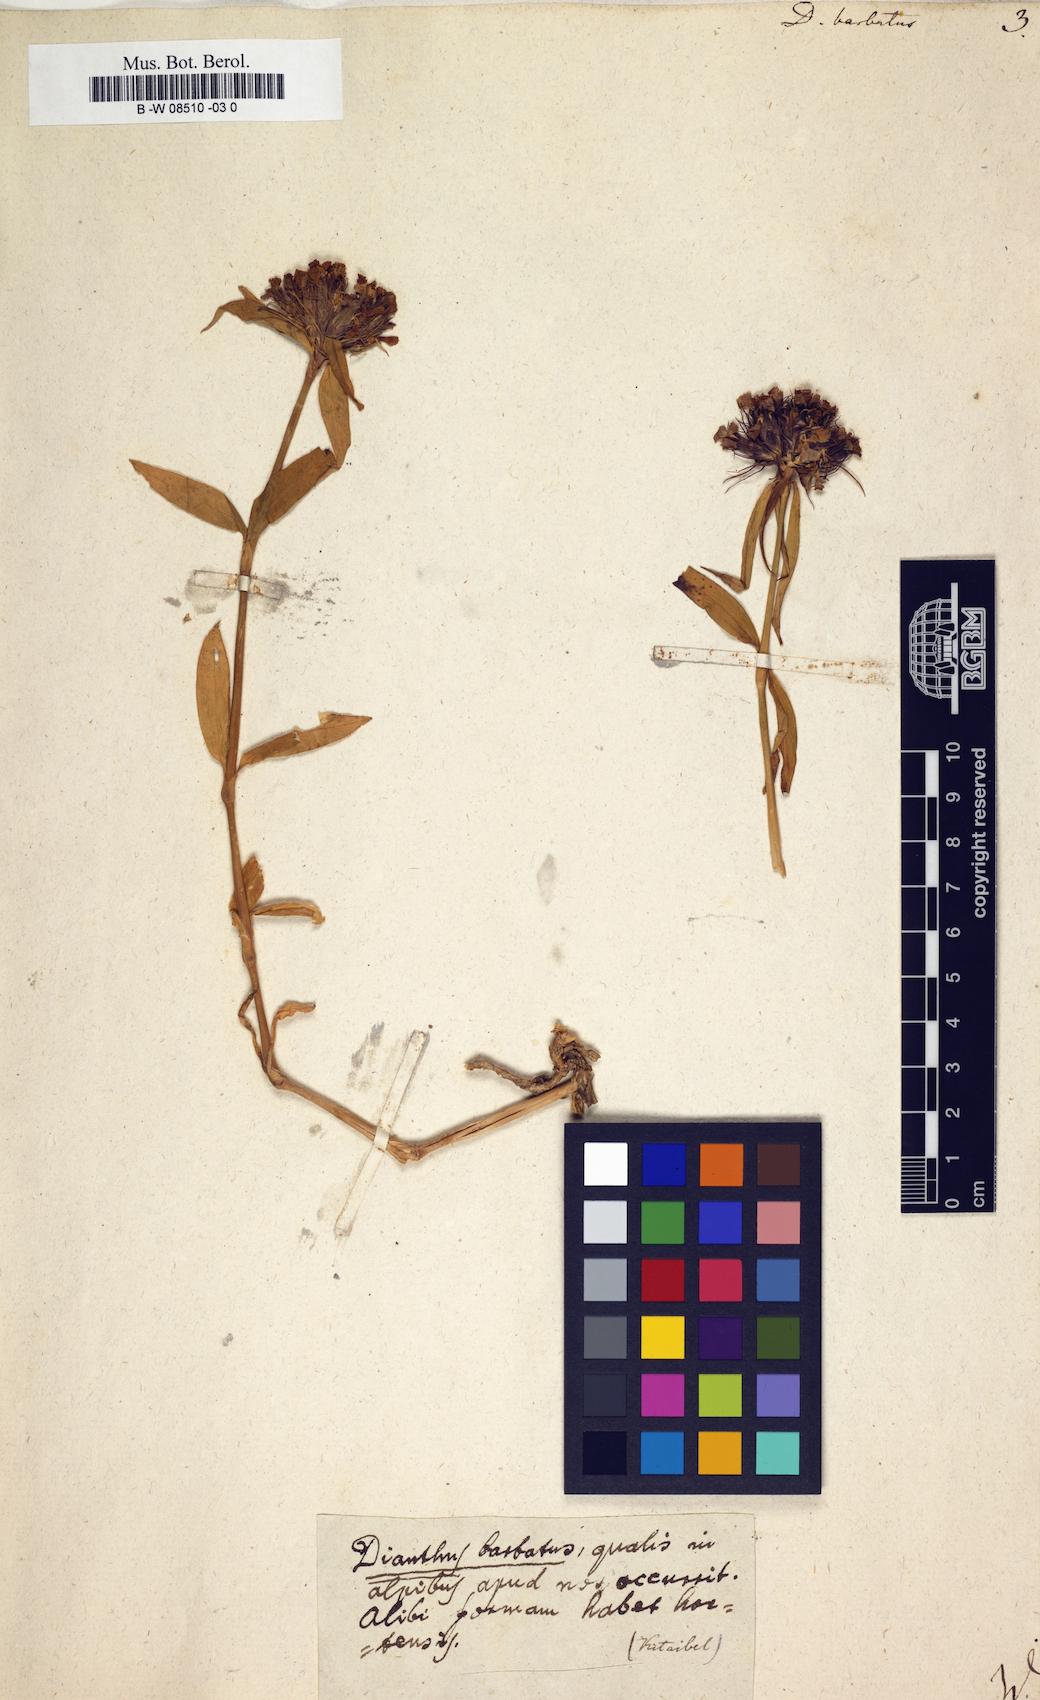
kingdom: Plantae
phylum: Tracheophyta
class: Magnoliopsida
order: Caryophyllales
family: Caryophyllaceae
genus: Dianthus
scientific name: Dianthus barbatus
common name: Sweet-william
